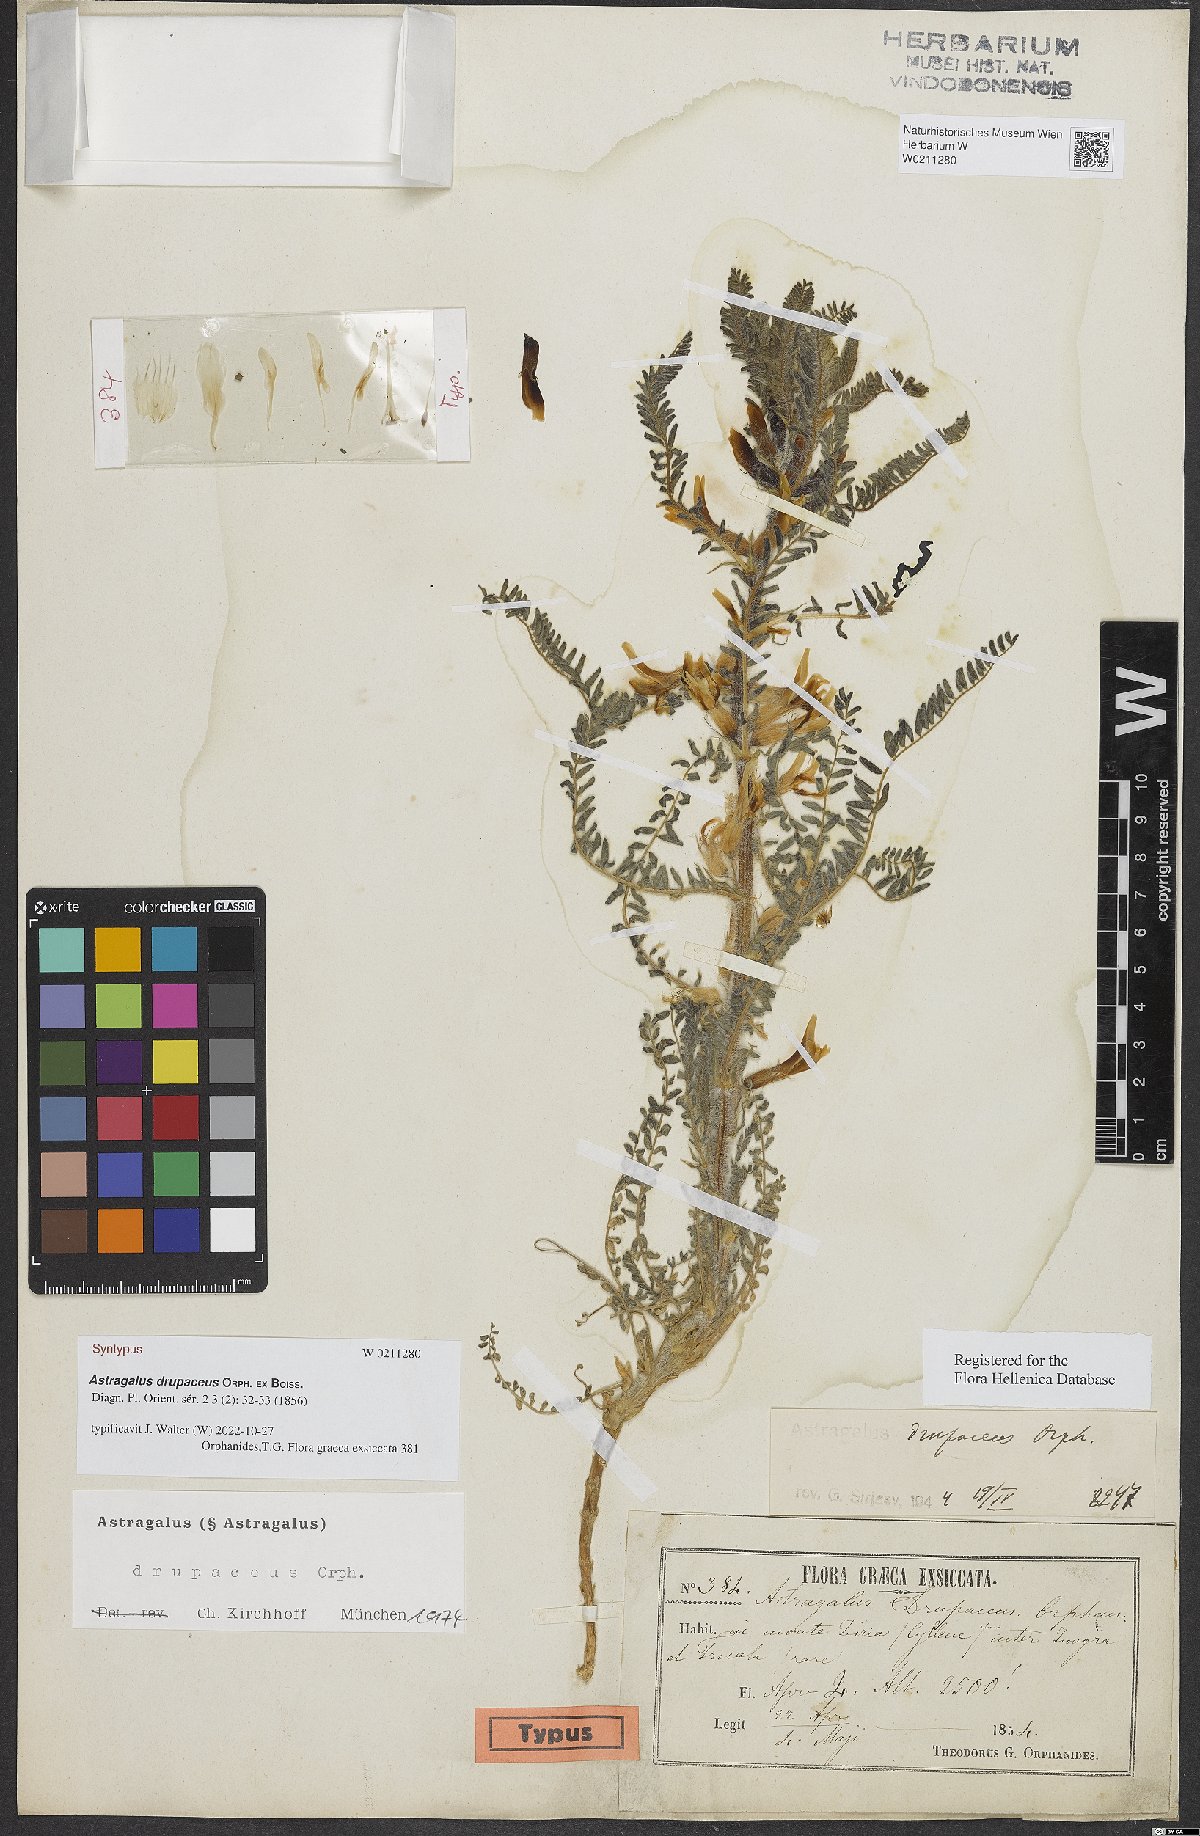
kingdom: Plantae
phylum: Tracheophyta
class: Magnoliopsida
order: Fabales
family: Fabaceae
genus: Astragalus
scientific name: Astragalus drupaceus
